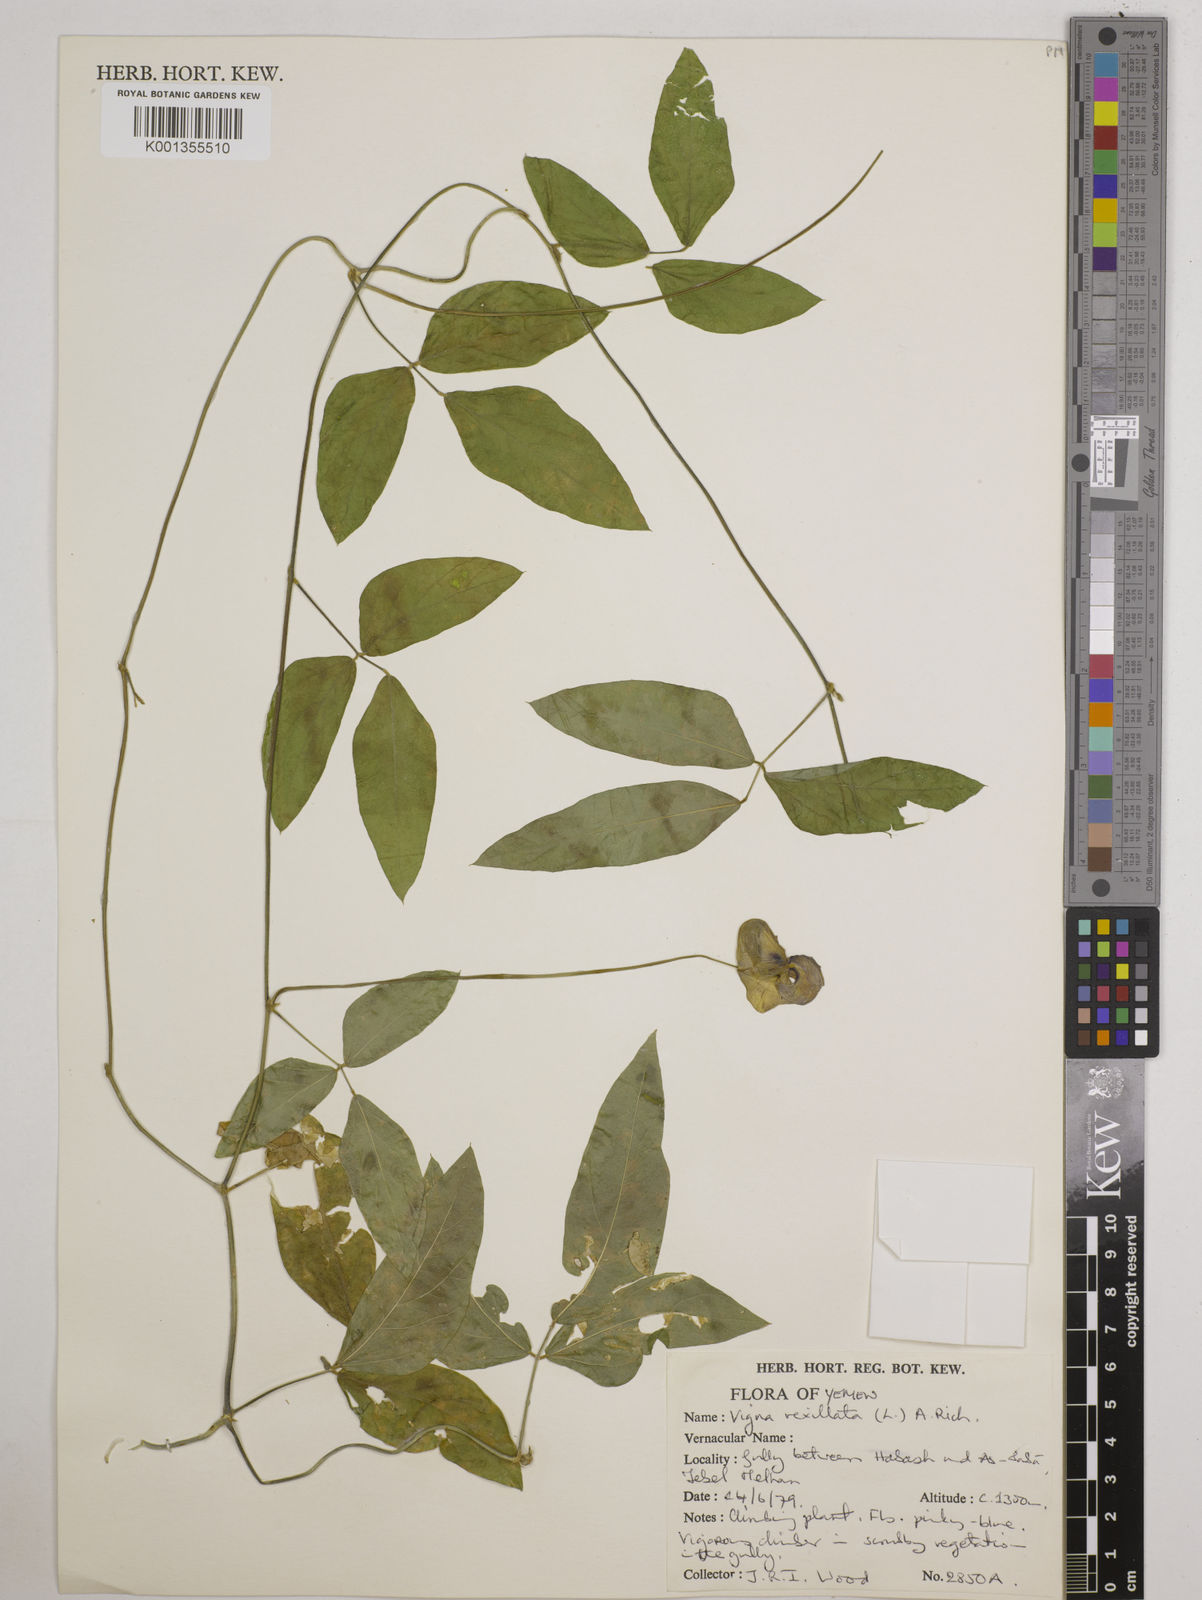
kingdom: Plantae
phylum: Tracheophyta
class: Magnoliopsida
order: Fabales
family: Fabaceae
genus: Vigna
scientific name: Vigna vexillata
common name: Zombi pea
